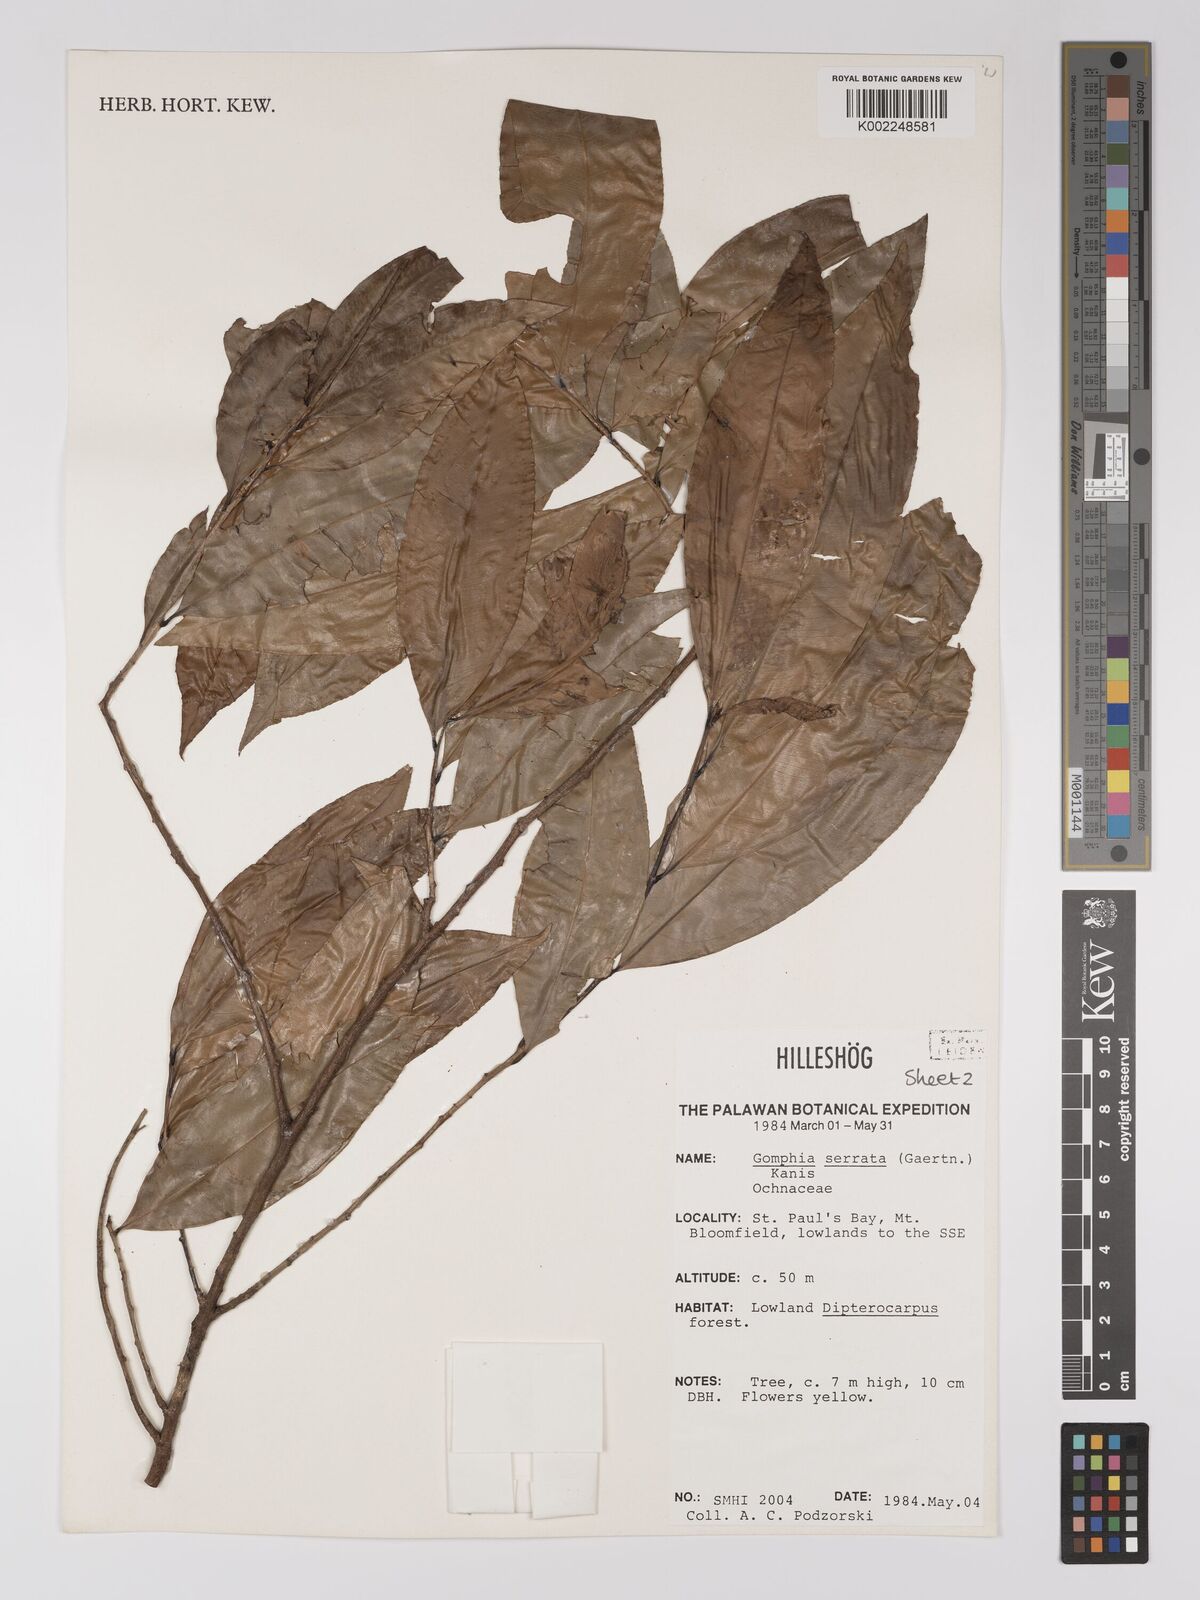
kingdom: Plantae
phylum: Tracheophyta
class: Magnoliopsida
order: Malpighiales
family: Ochnaceae
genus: Gomphia
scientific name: Gomphia serrata
